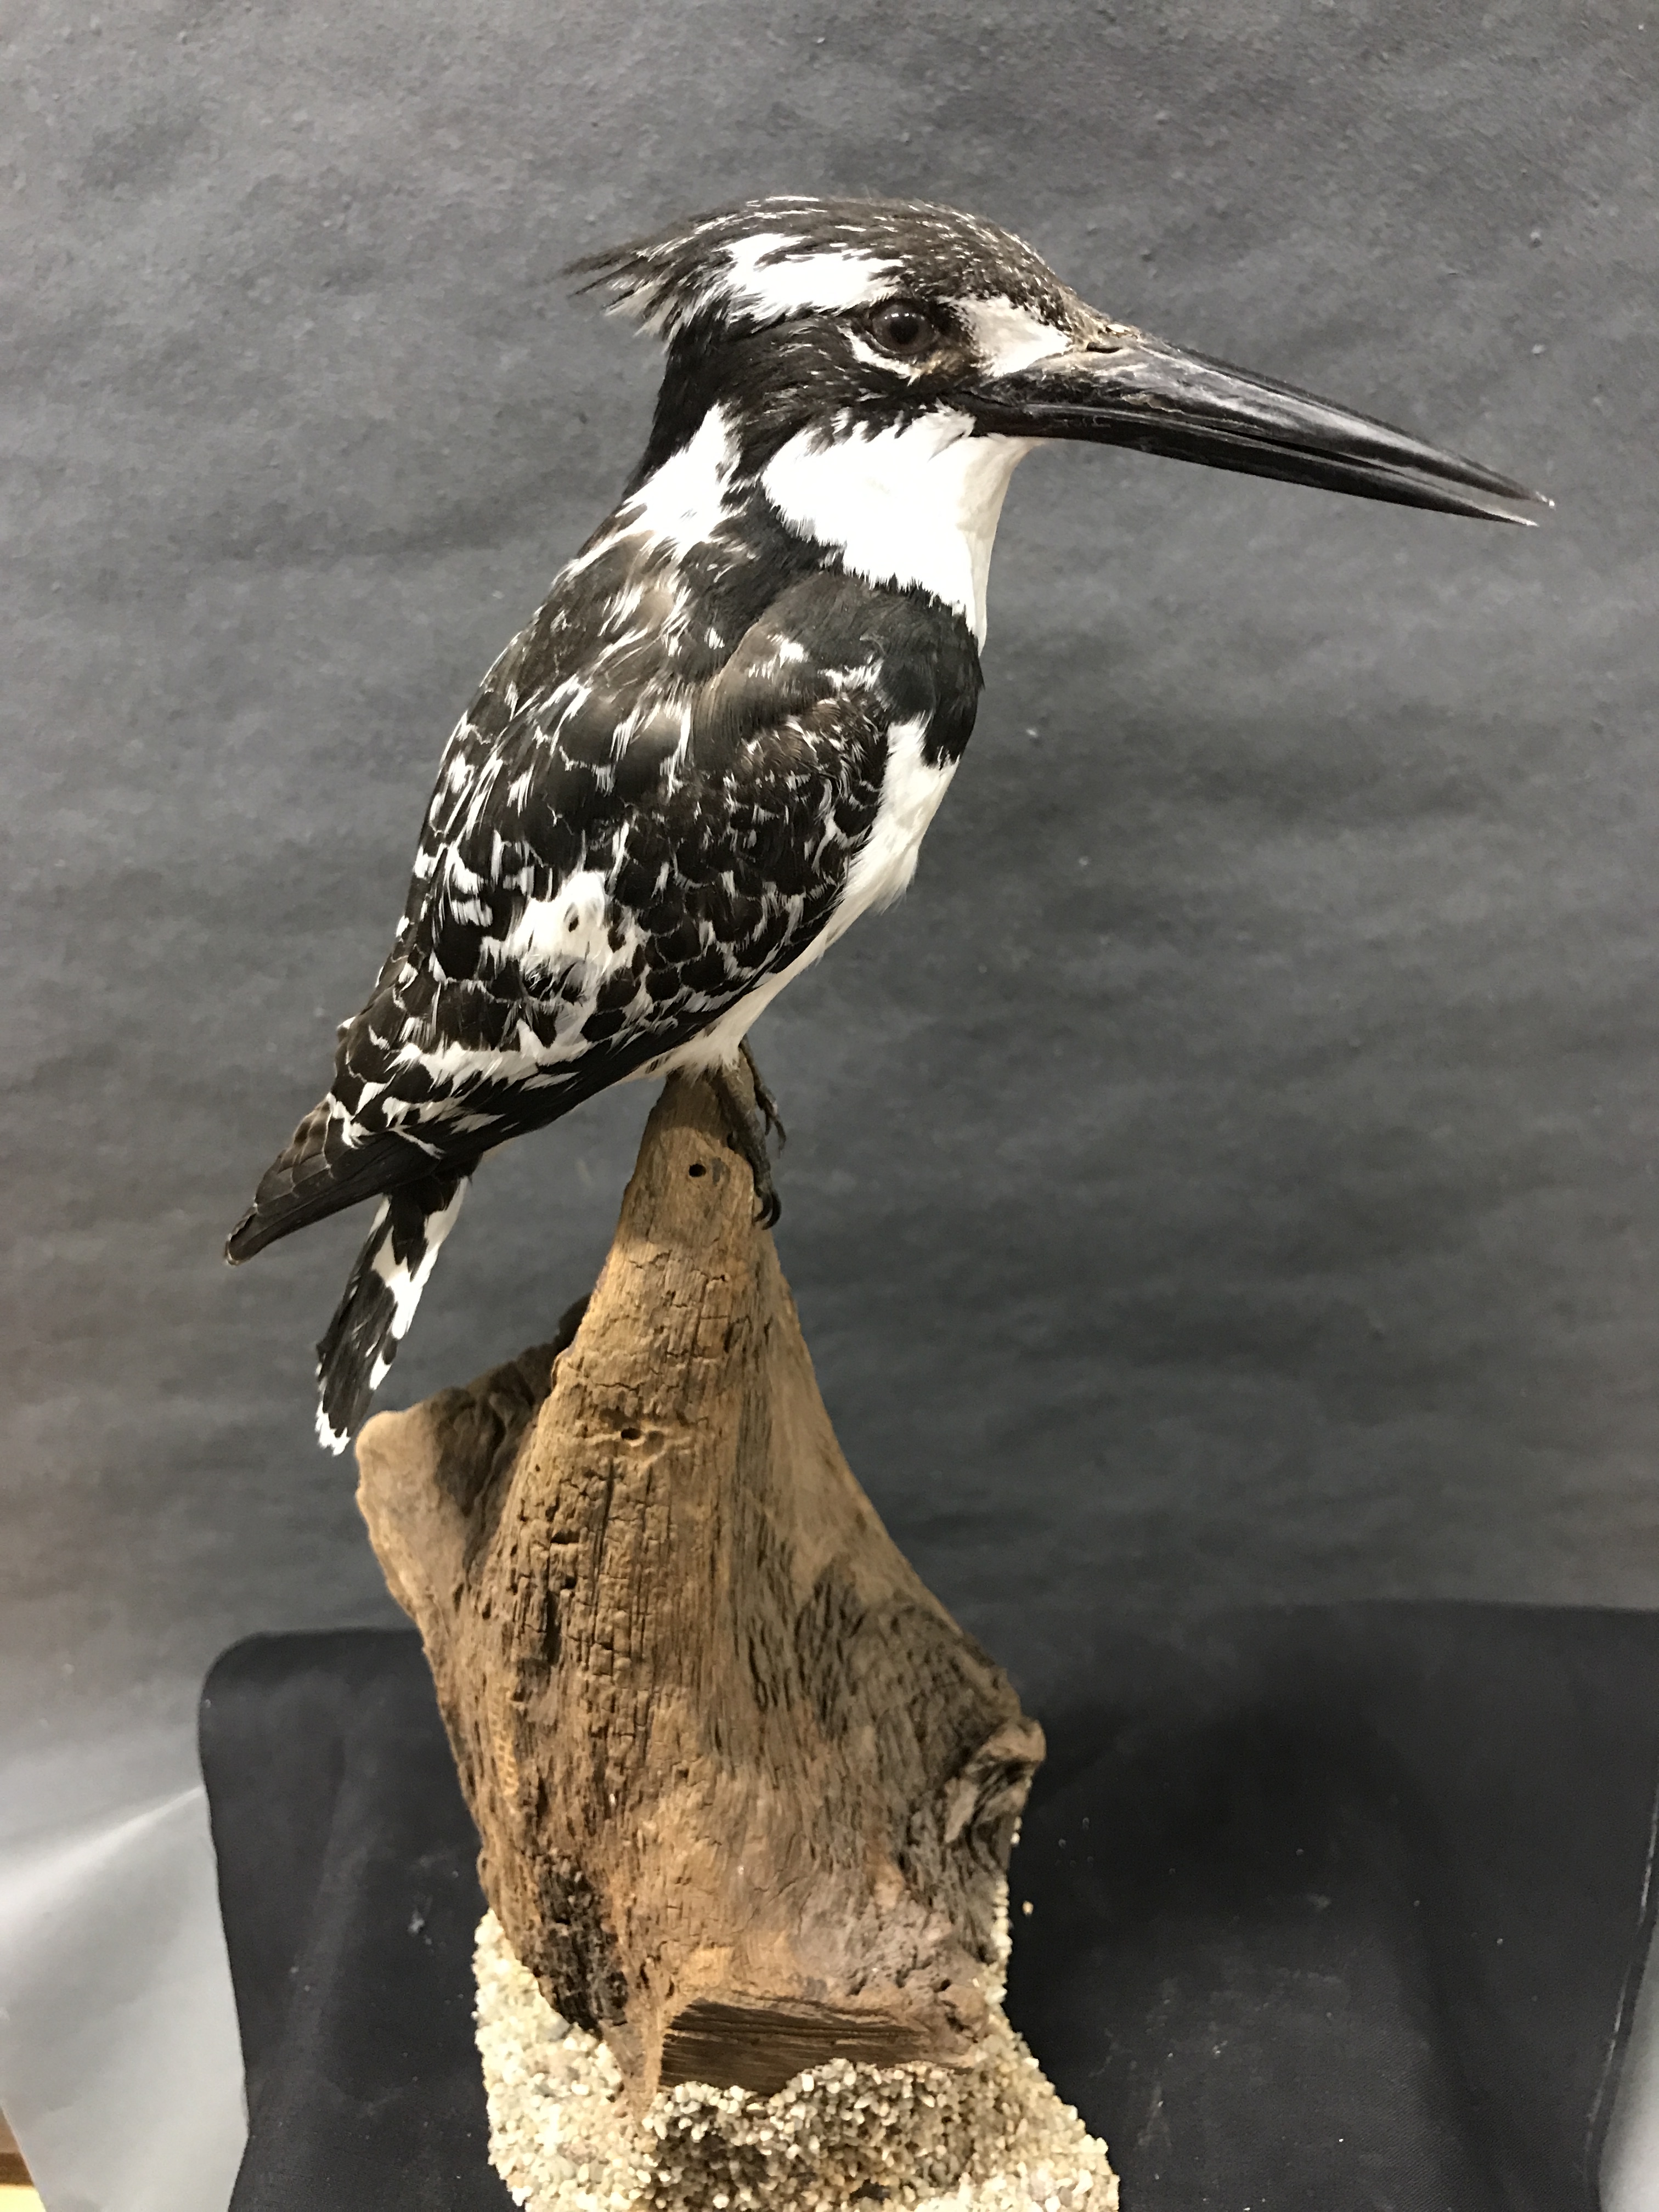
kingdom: Animalia
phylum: Chordata
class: Aves
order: Coraciiformes
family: Alcedinidae
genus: Ceryle
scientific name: Ceryle rudis
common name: Pied kingfisher
